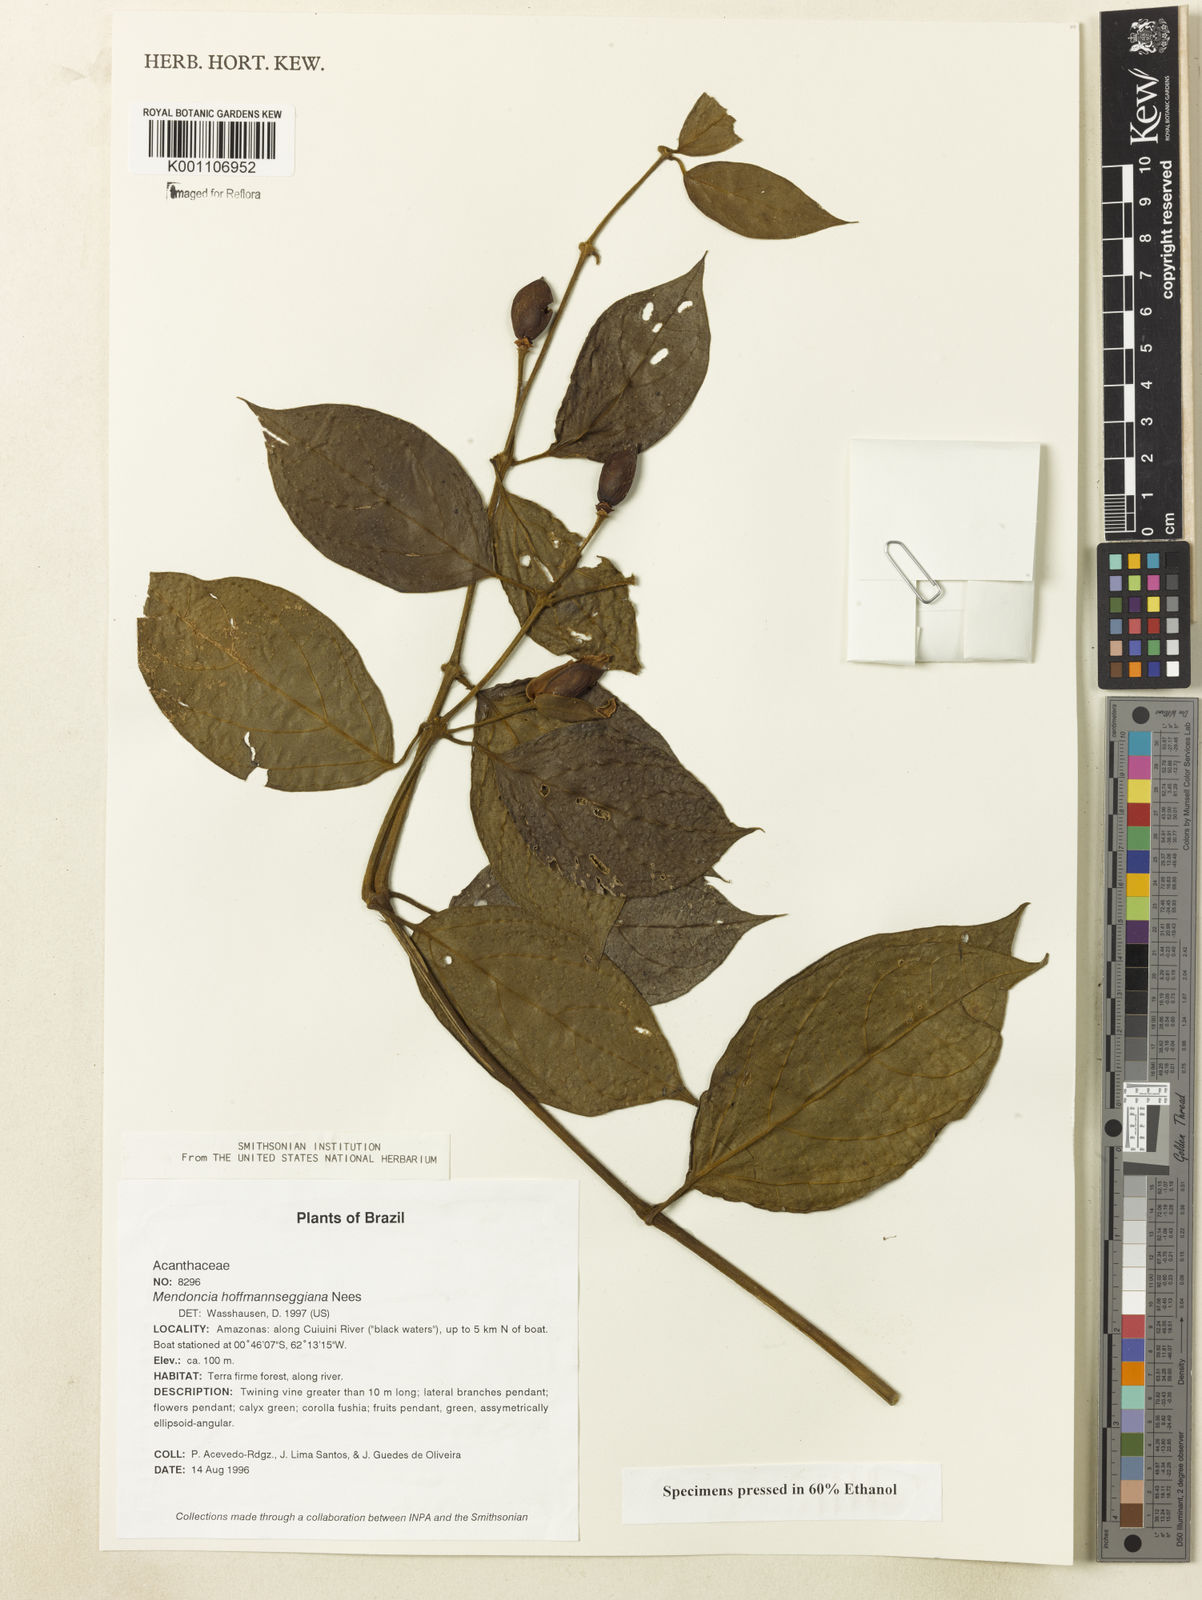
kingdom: Plantae
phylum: Tracheophyta
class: Magnoliopsida
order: Lamiales
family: Acanthaceae
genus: Mendoncia
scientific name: Mendoncia hoffmannseggiana
